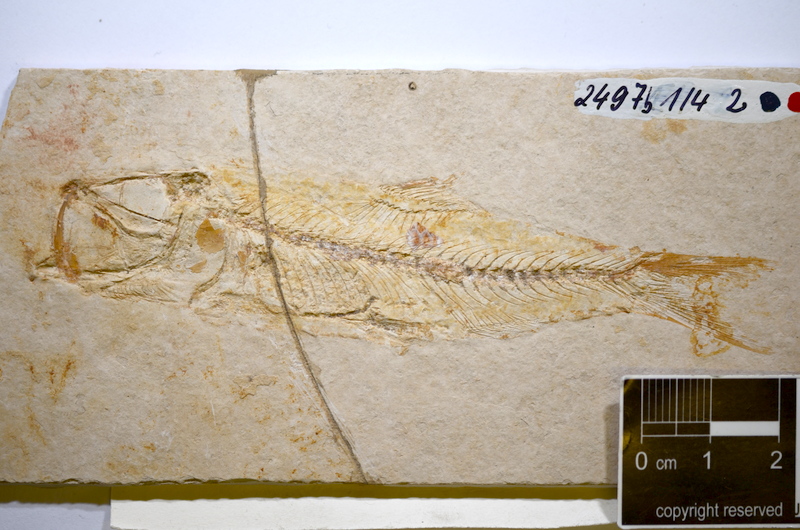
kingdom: Animalia
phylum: Chordata
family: Ascalaboidae
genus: Ascalabos
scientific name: Ascalabos voithii
